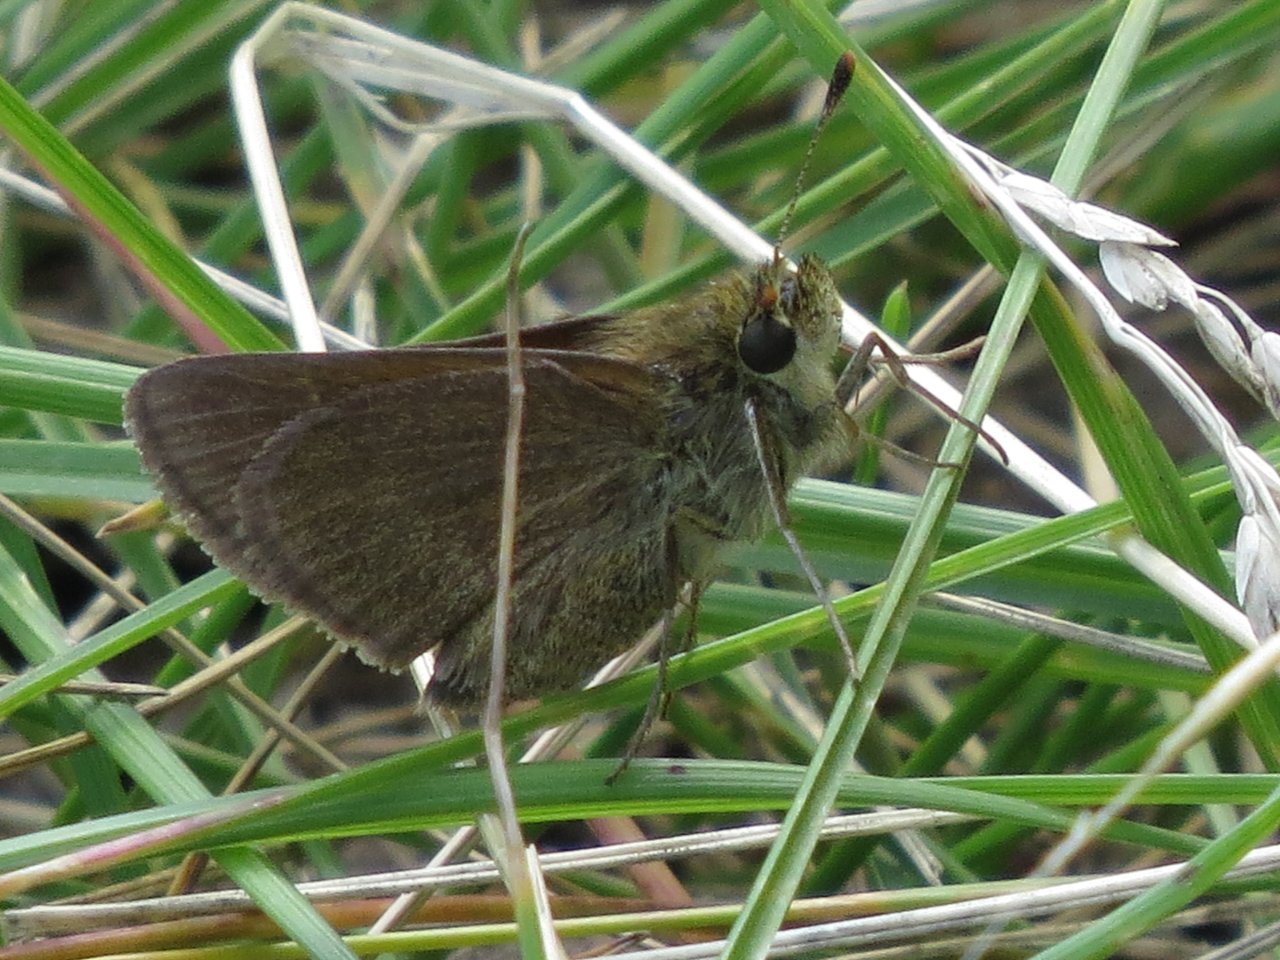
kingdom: Animalia
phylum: Arthropoda
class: Insecta
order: Lepidoptera
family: Hesperiidae
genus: Oarisma
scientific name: Oarisma garita
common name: Garita Skipperling
